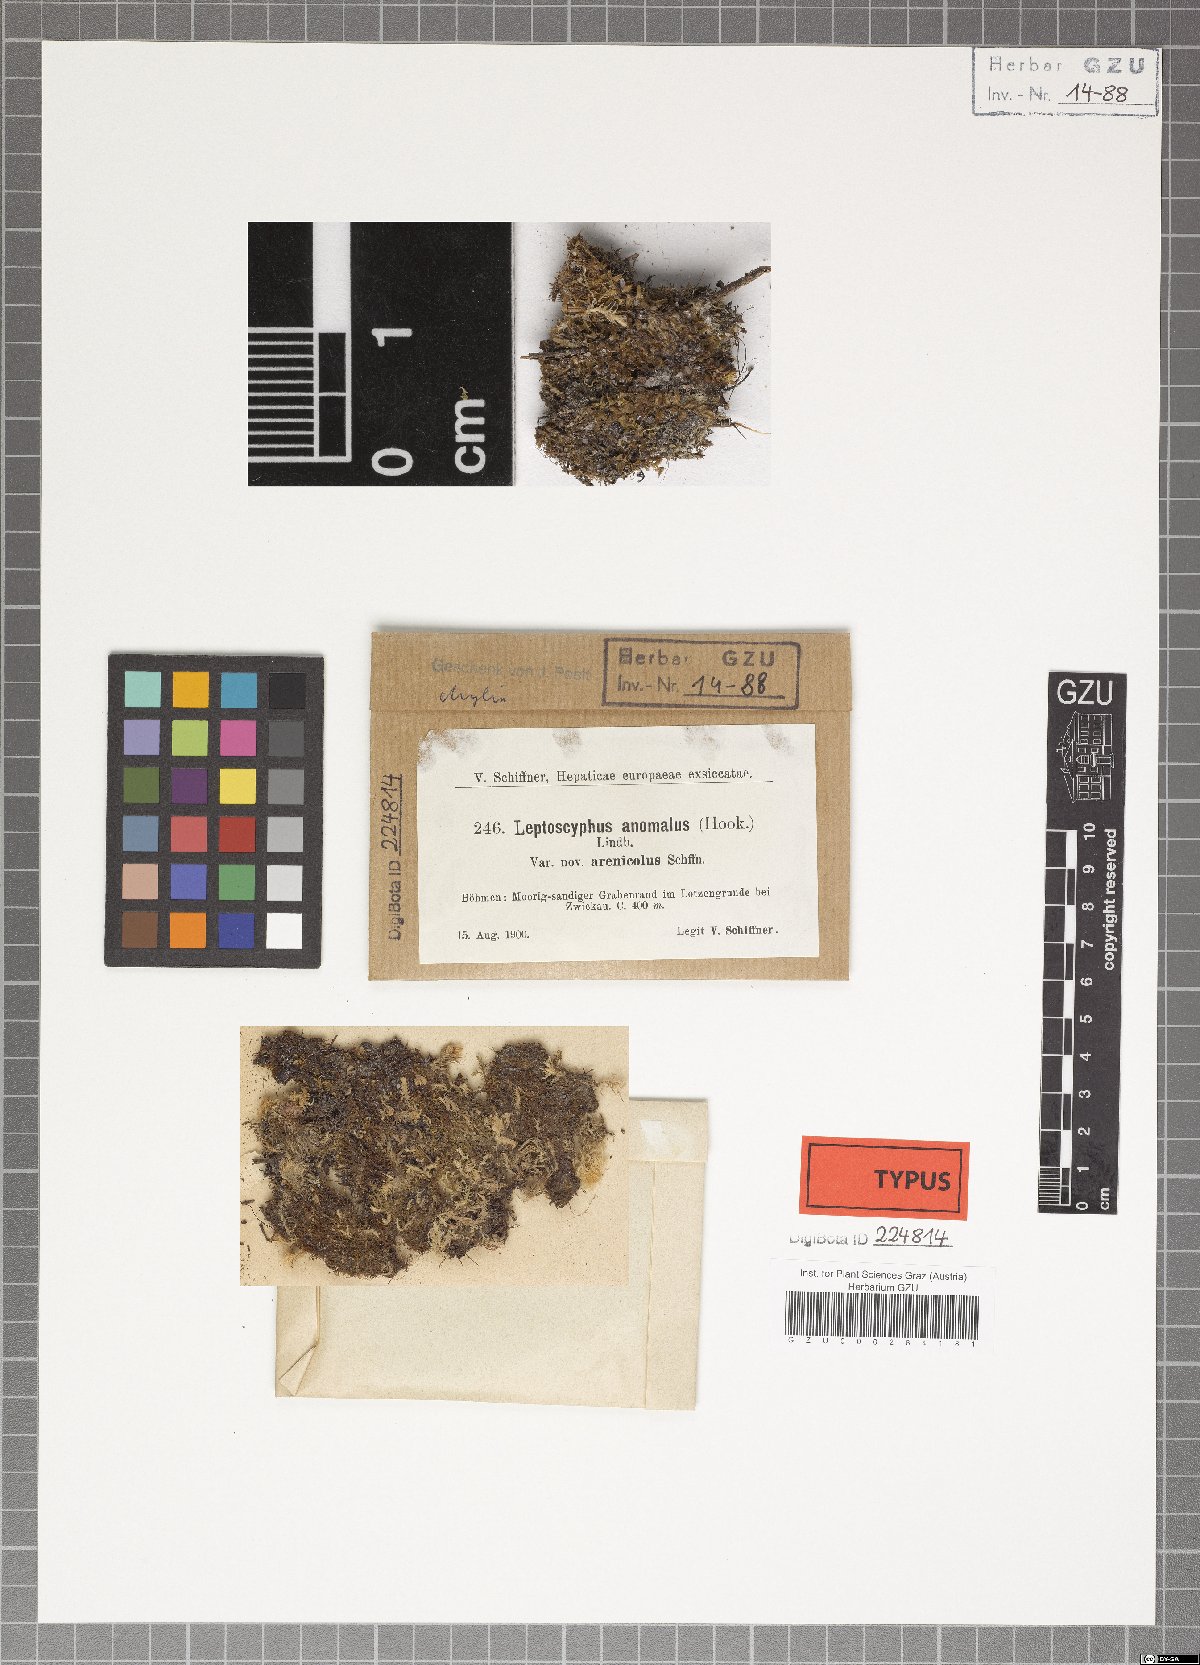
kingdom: Plantae
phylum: Marchantiophyta
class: Jungermanniopsida
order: Jungermanniales
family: Myliaceae
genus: Mylia
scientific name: Mylia anomala
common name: Anomalous flapwort
